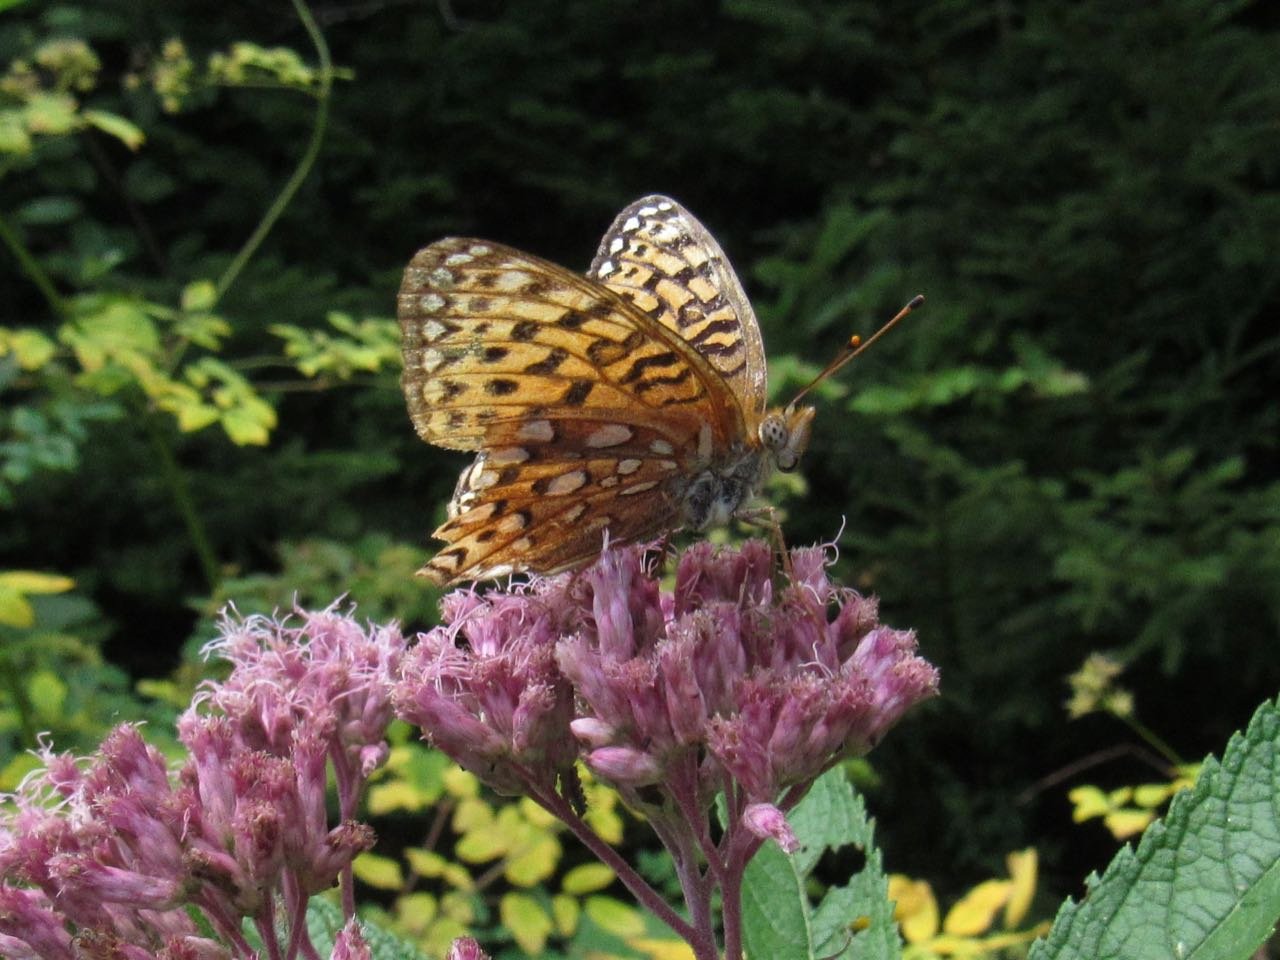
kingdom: Animalia
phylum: Arthropoda
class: Insecta
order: Lepidoptera
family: Nymphalidae
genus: Speyeria
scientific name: Speyeria atlantis
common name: Atlantis Fritillary
